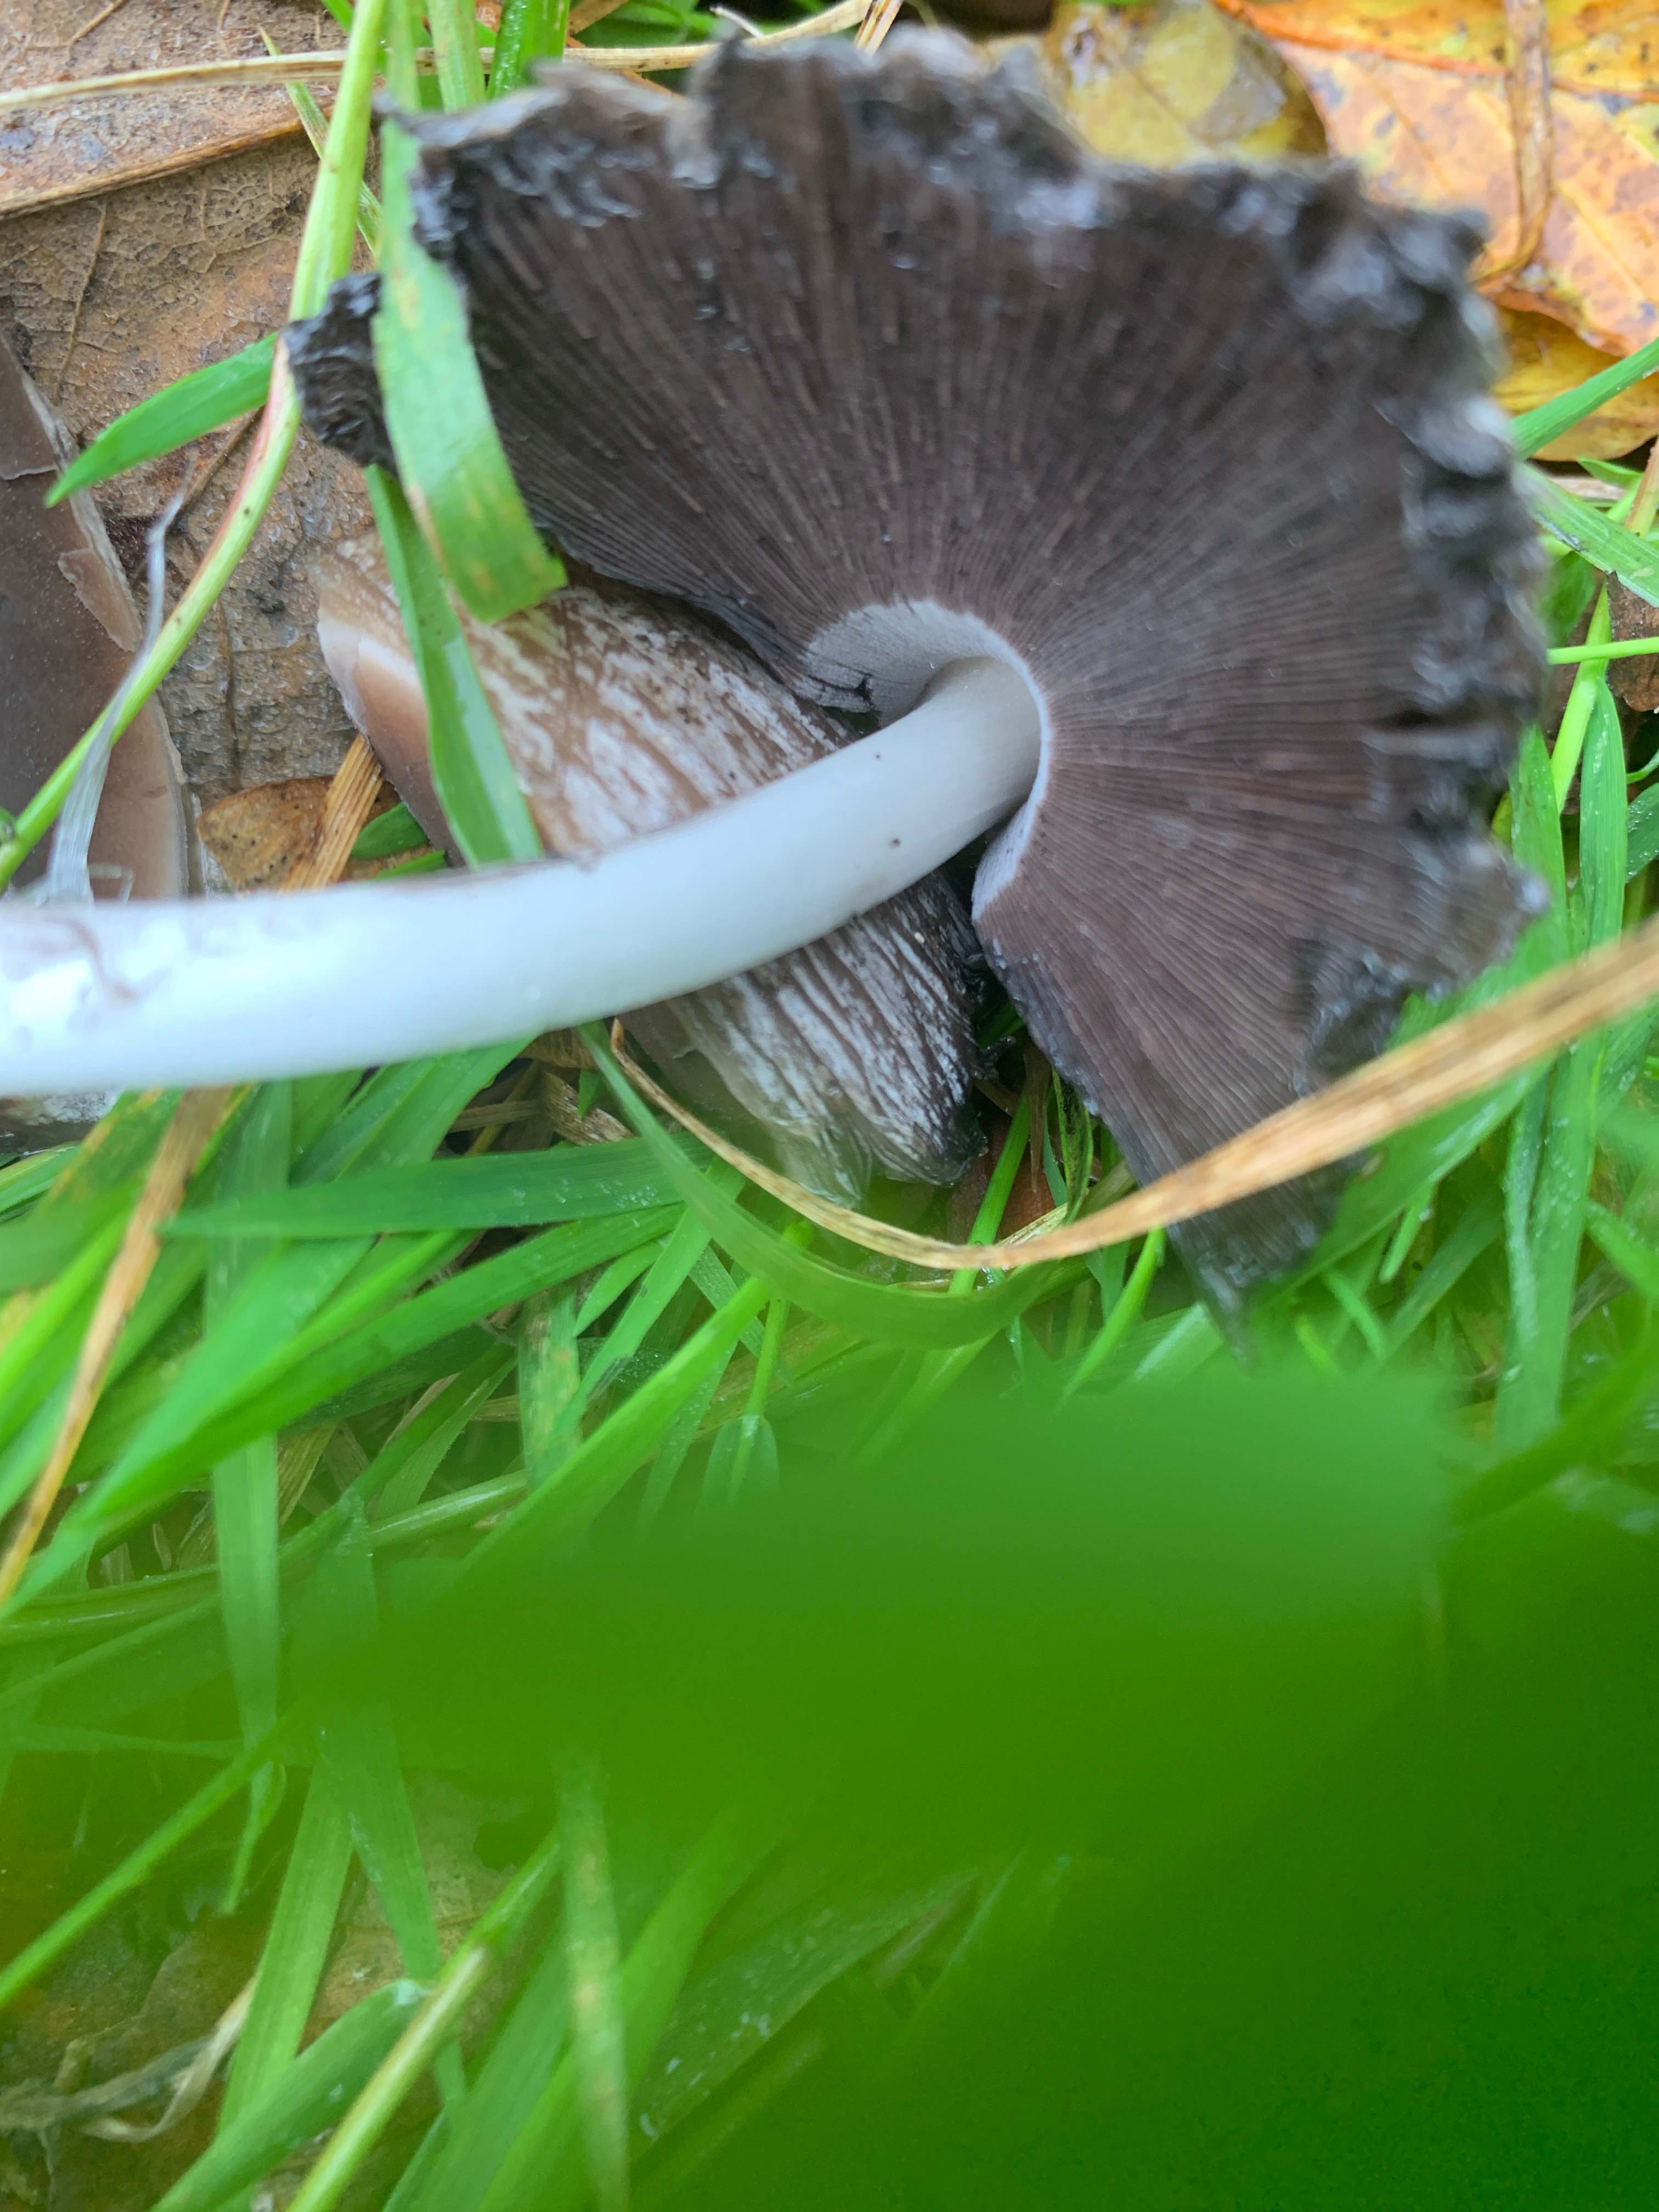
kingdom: Fungi
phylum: Basidiomycota
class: Agaricomycetes
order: Agaricales
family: Psathyrellaceae
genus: Coprinopsis
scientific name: Coprinopsis atramentaria
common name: almindelig blækhat
